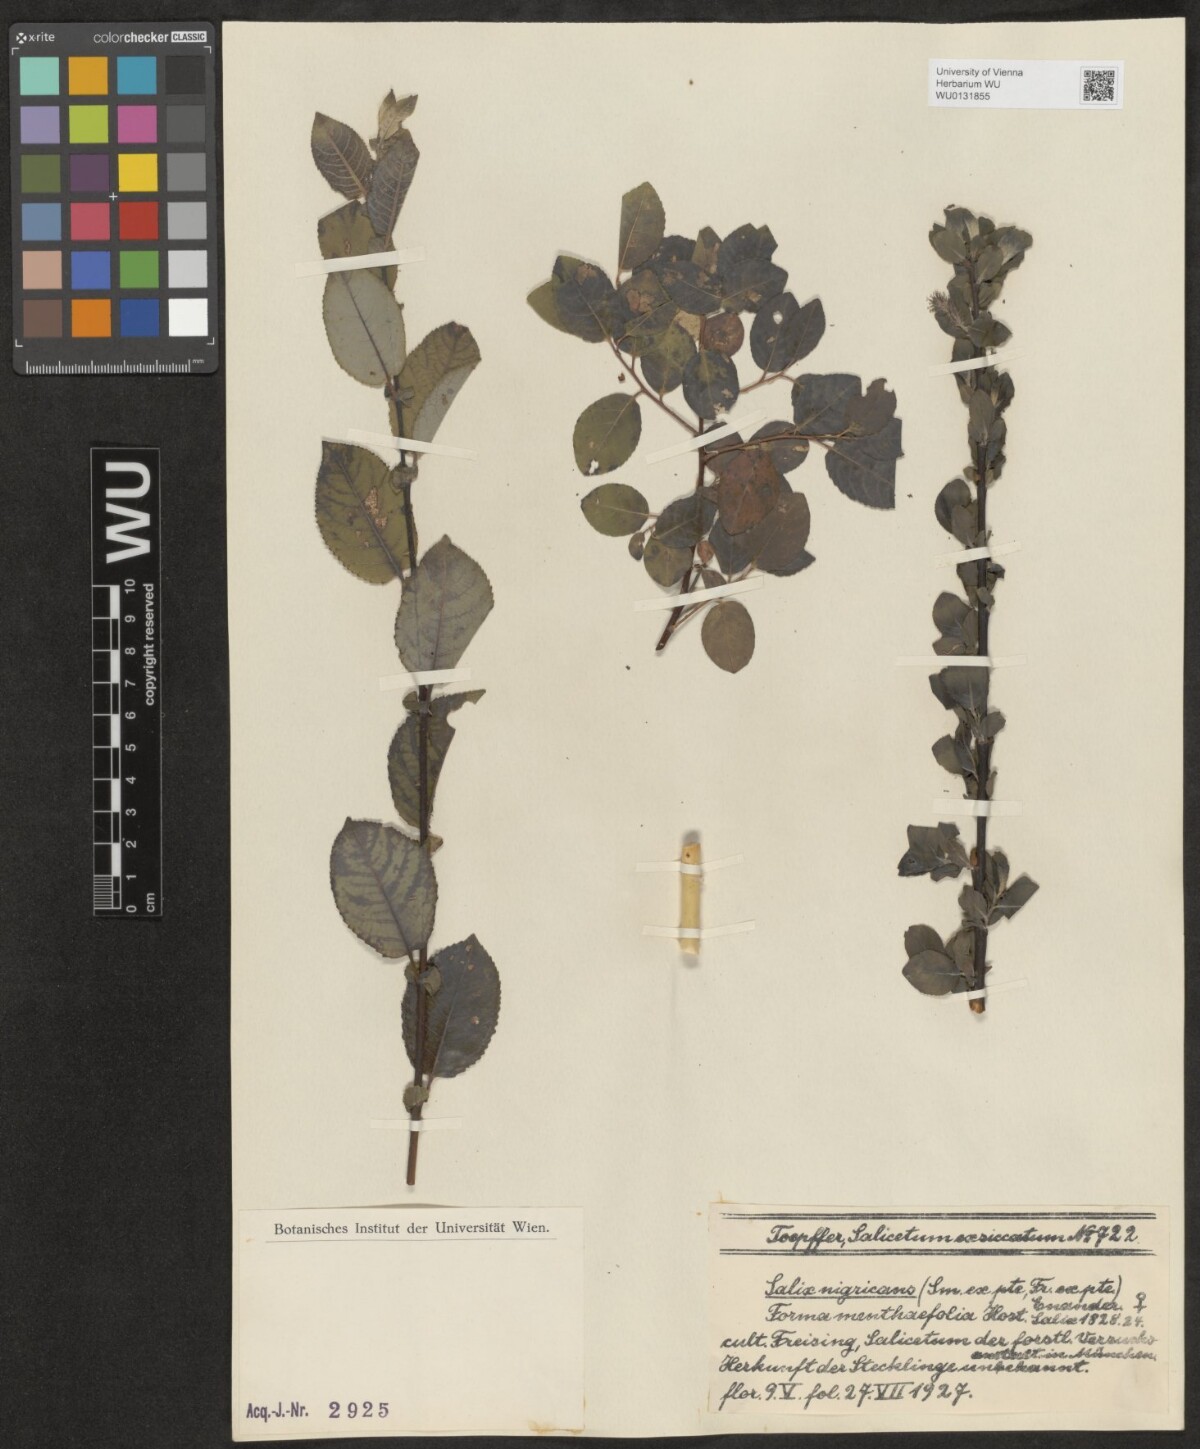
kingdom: Plantae
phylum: Tracheophyta
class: Magnoliopsida
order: Malpighiales
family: Salicaceae
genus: Salix
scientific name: Salix myrsinifolia
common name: Dark-leaved willow
